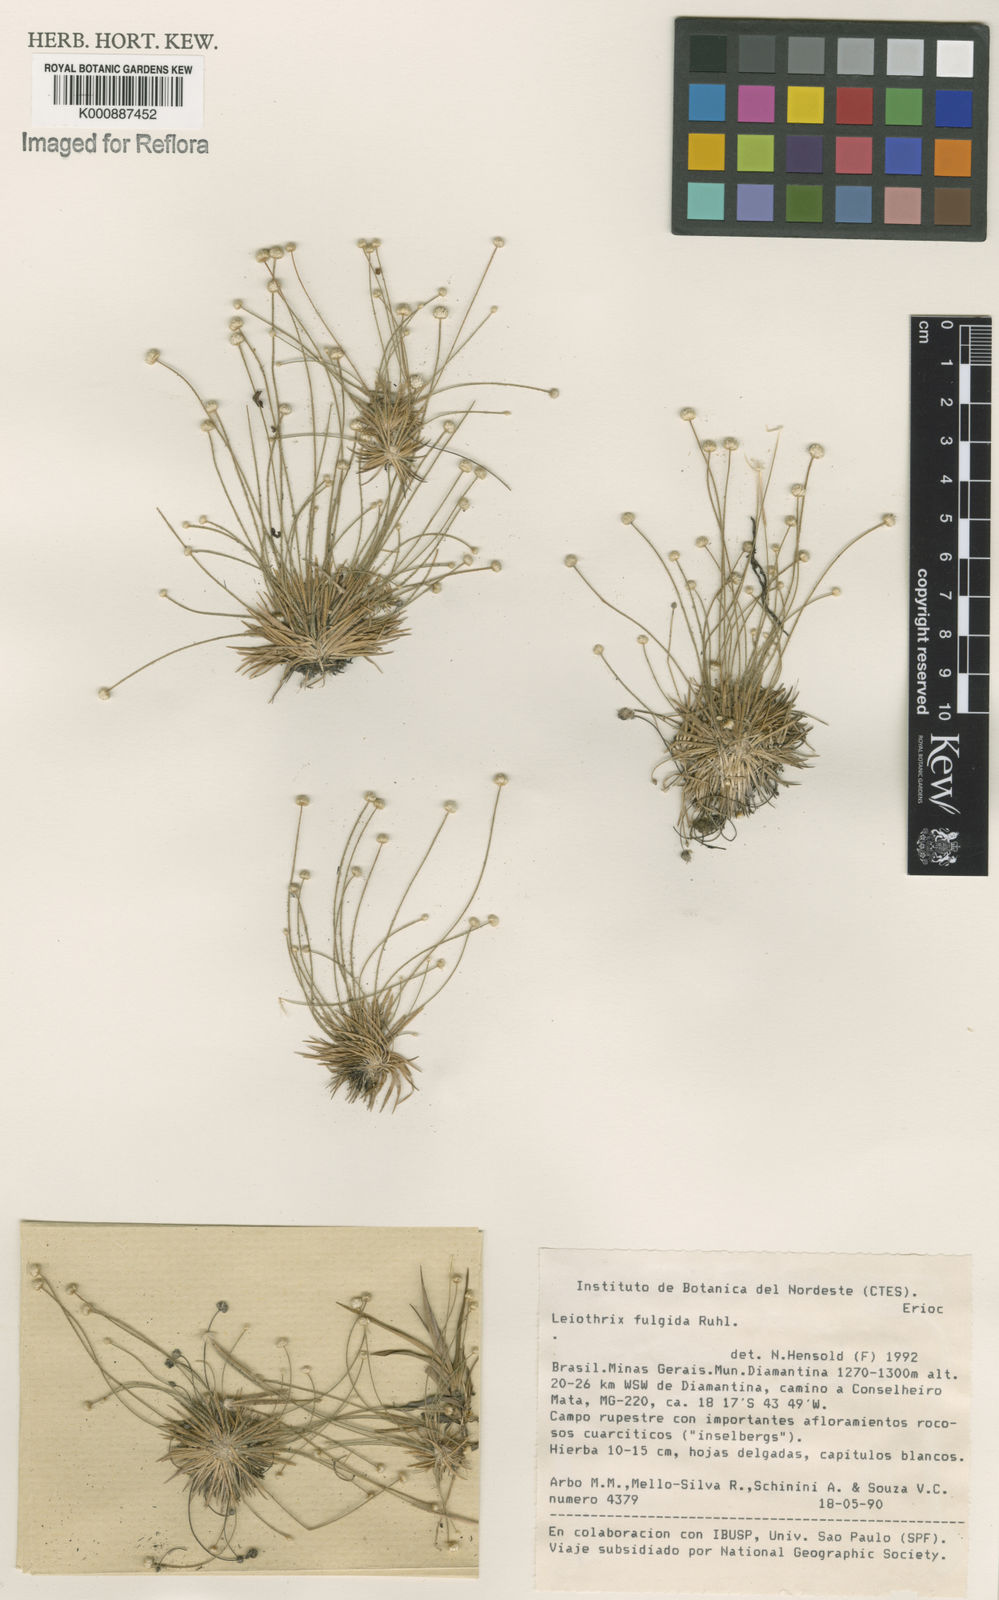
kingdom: Plantae
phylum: Tracheophyta
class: Liliopsida
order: Poales
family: Eriocaulaceae
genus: Leiothrix
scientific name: Leiothrix fulgida
